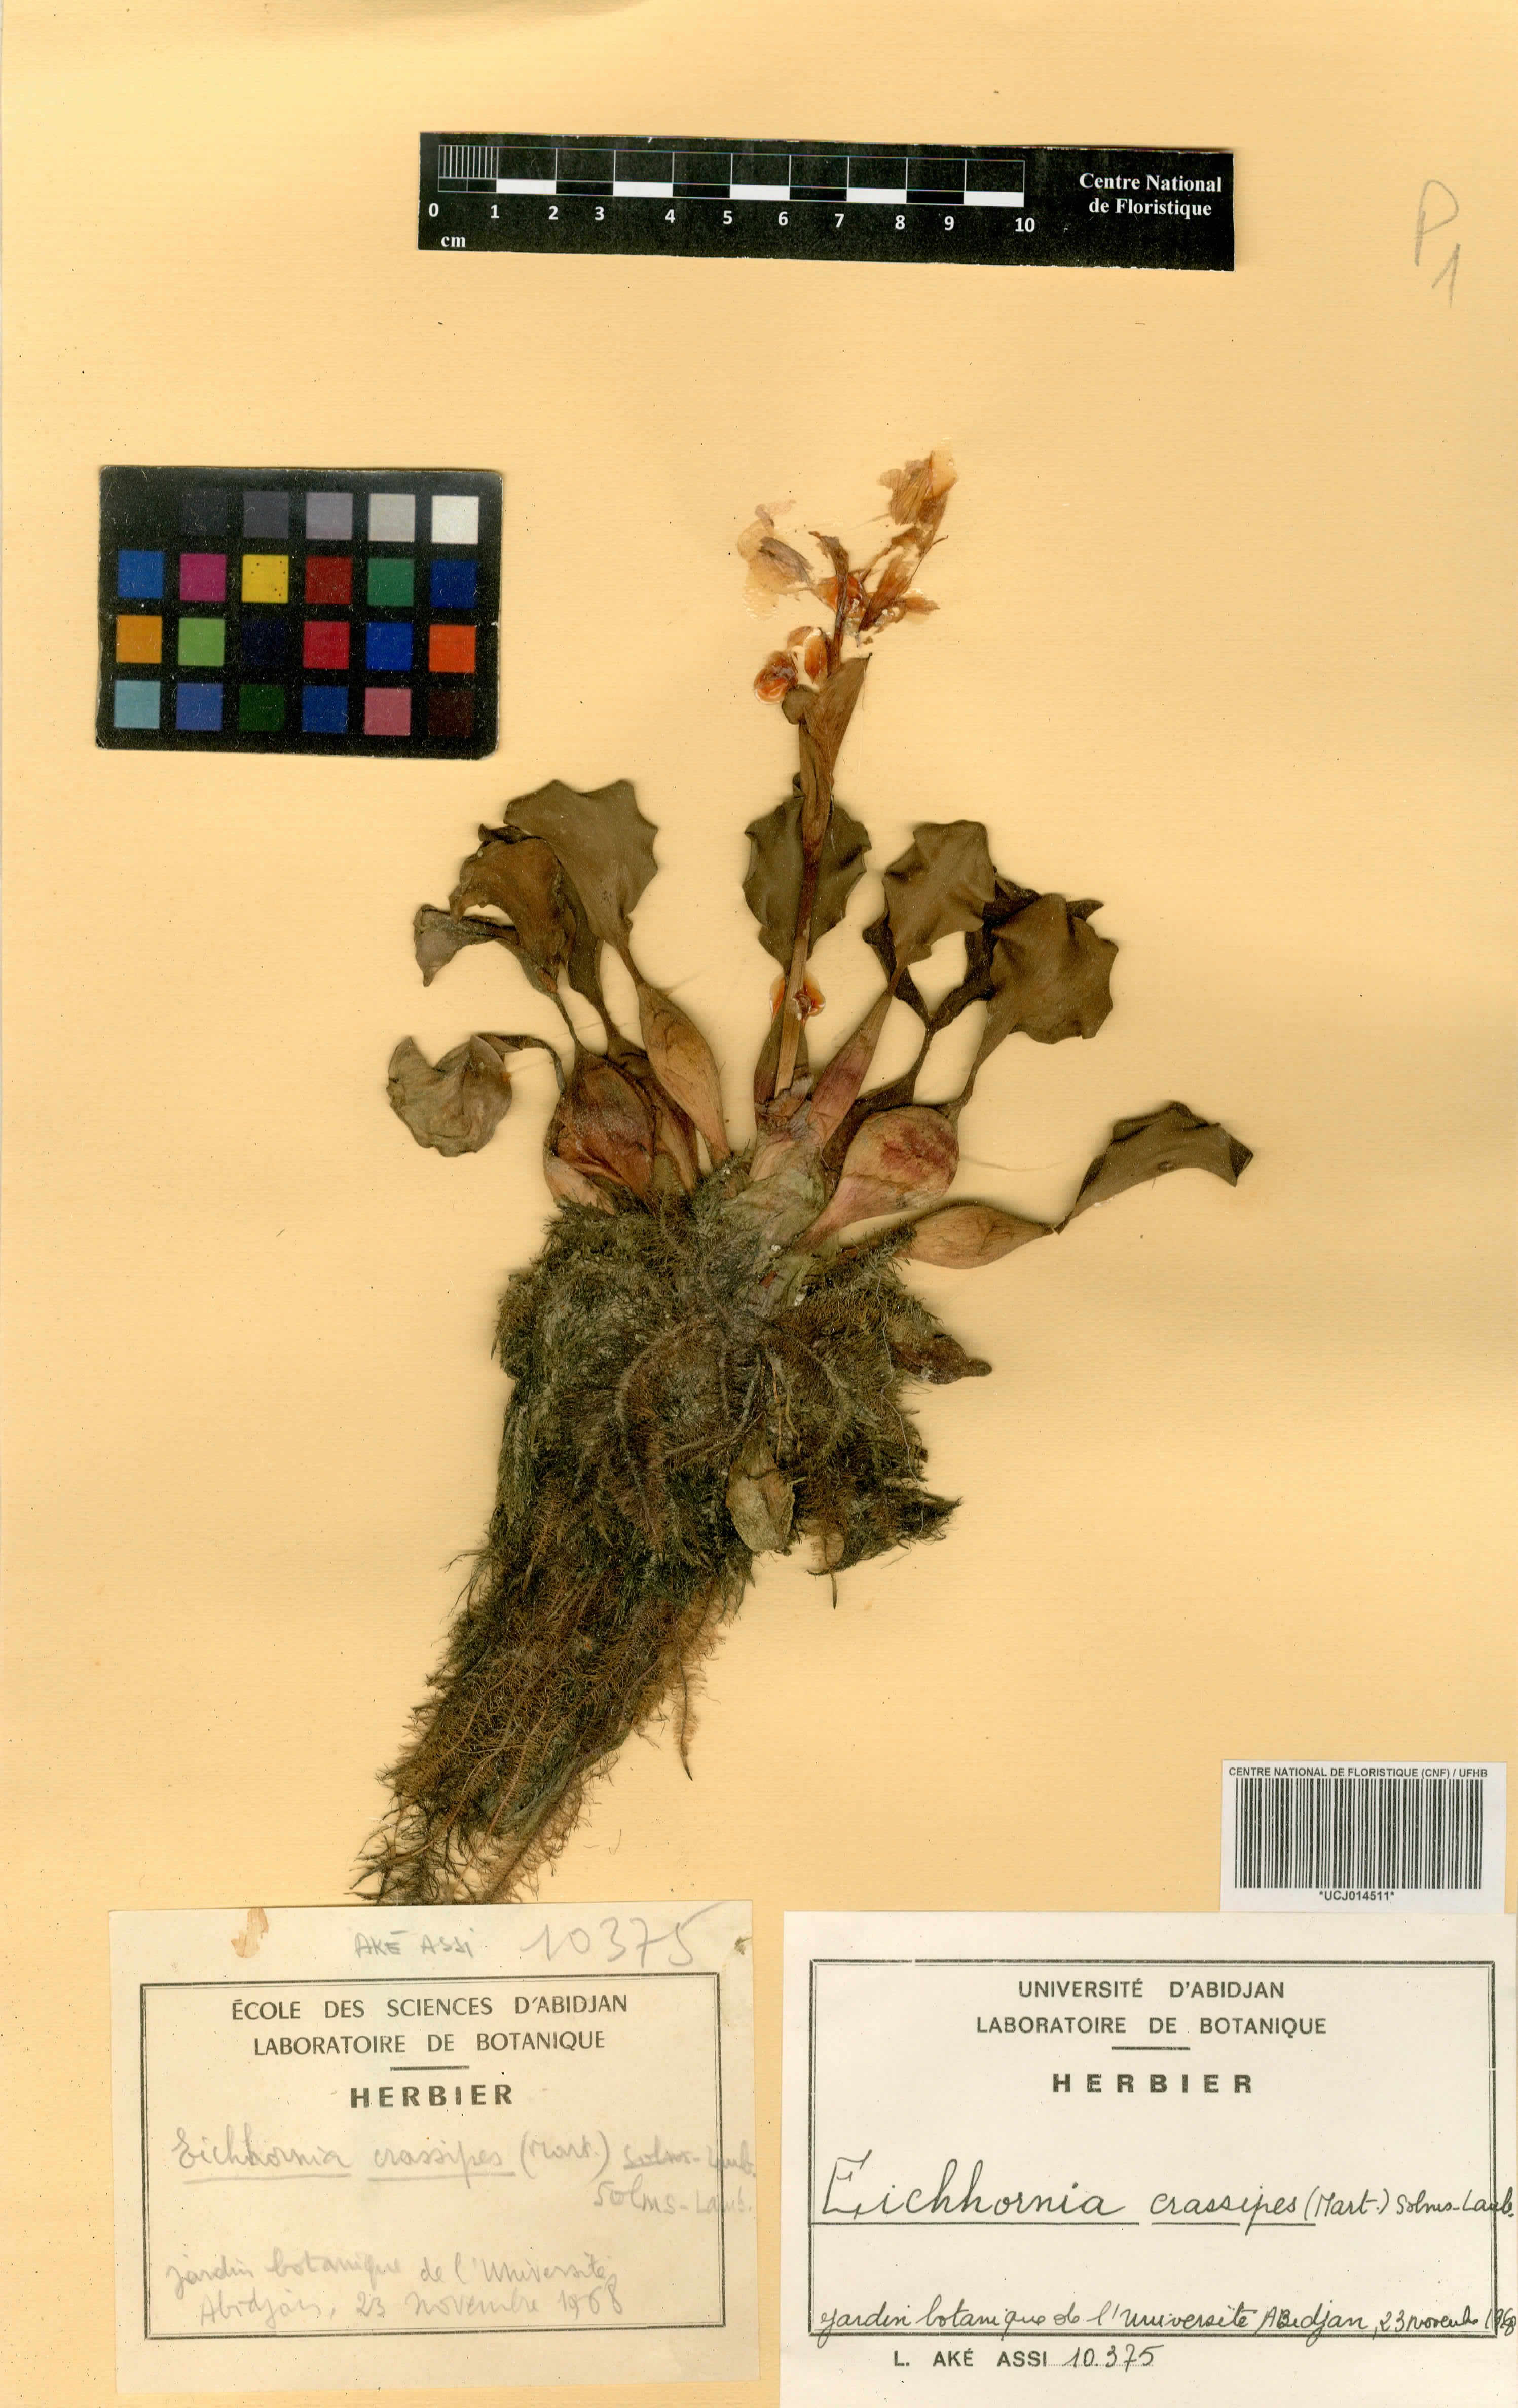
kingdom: Plantae
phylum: Tracheophyta
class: Liliopsida
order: Commelinales
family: Pontederiaceae
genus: Pontederia
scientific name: Pontederia crassipes
